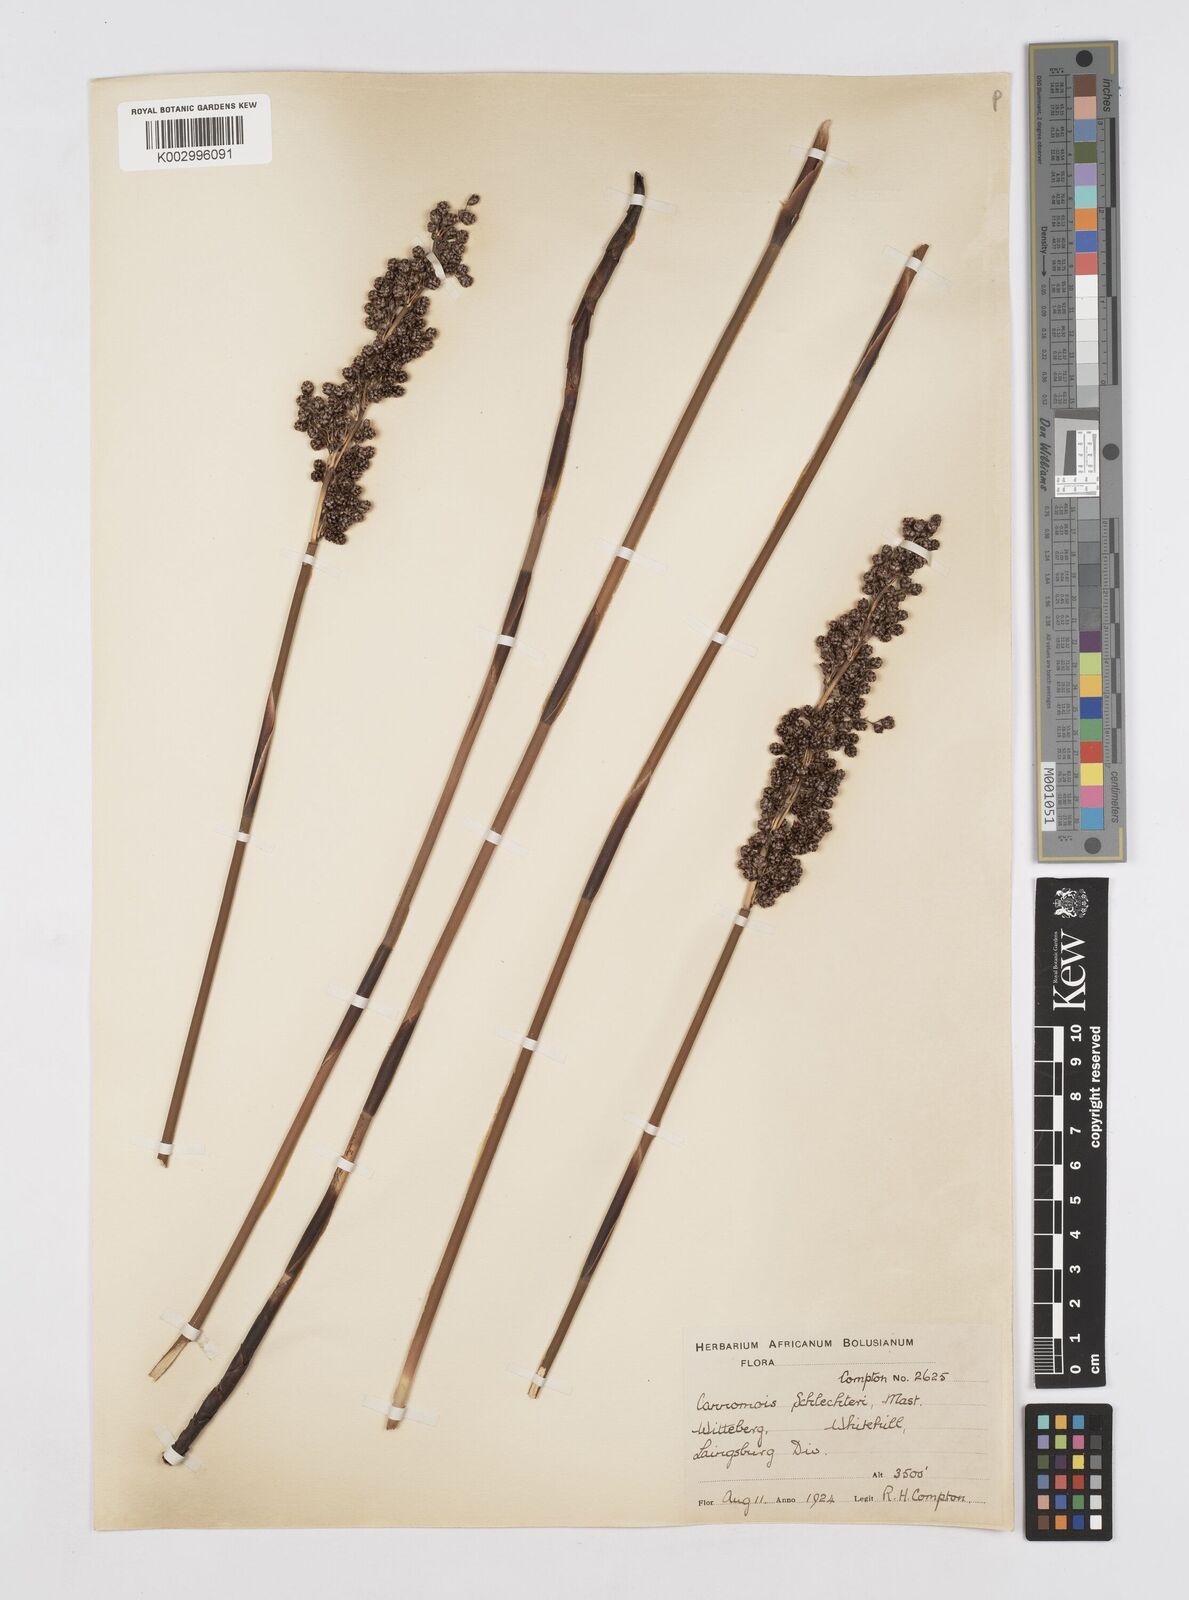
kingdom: Plantae
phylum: Tracheophyta
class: Liliopsida
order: Poales
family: Restionaceae
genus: Cannomois
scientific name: Cannomois parviflora
